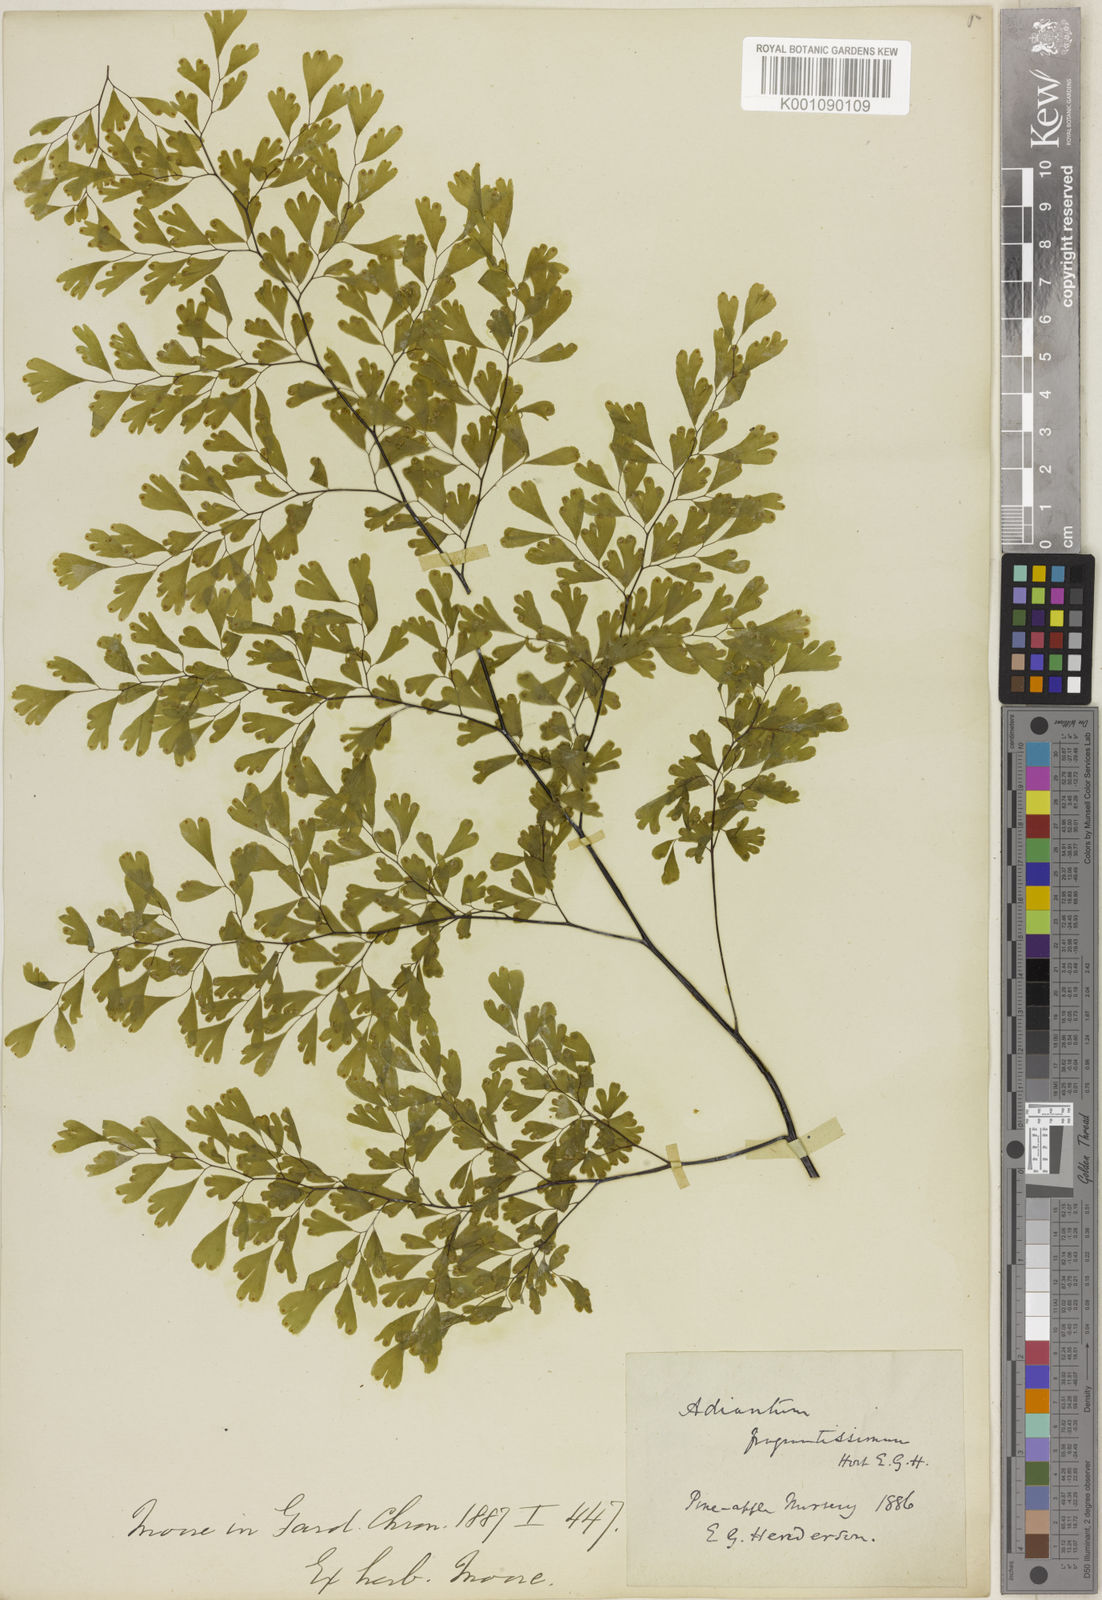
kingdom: Plantae
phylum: Tracheophyta
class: Polypodiopsida
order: Polypodiales
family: Pteridaceae
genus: Adiantum
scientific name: Adiantum raddianum
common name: Delta maidenhair fern
